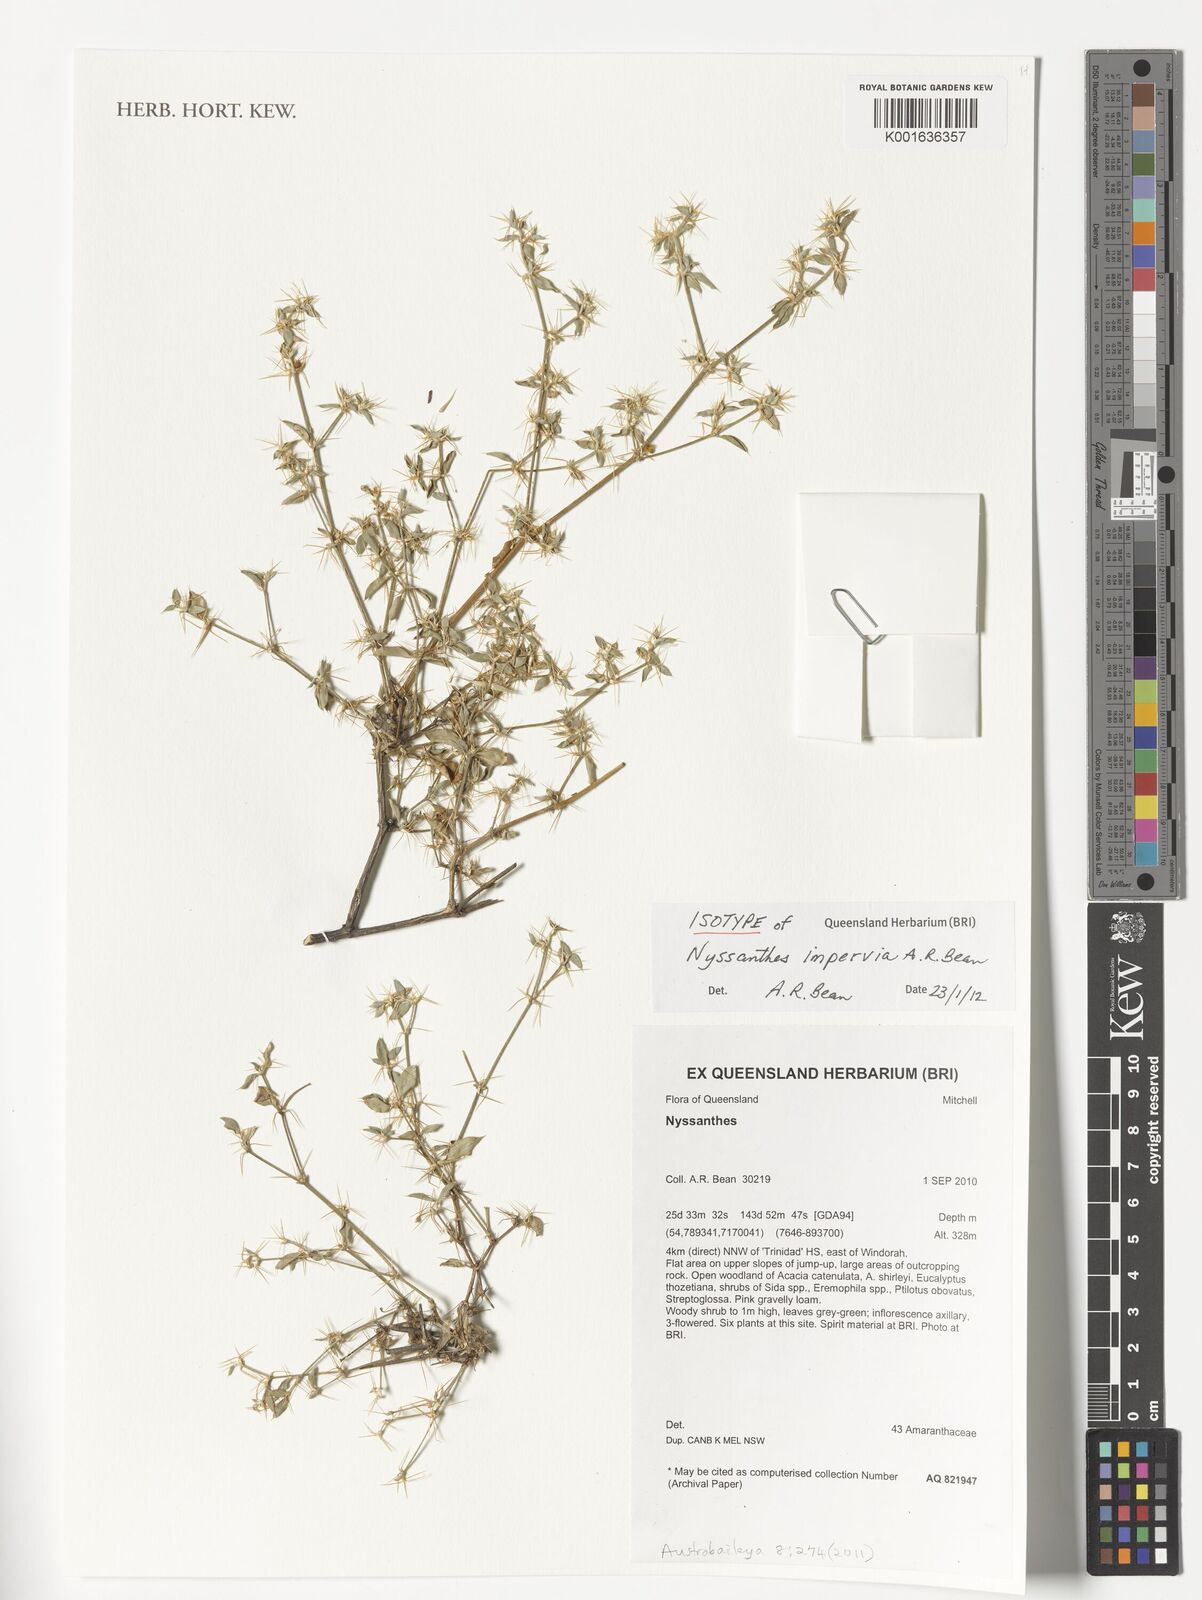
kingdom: Plantae
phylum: Tracheophyta
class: Magnoliopsida
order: Caryophyllales
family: Amaranthaceae
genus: Nyssanthes
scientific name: Nyssanthes impervia
